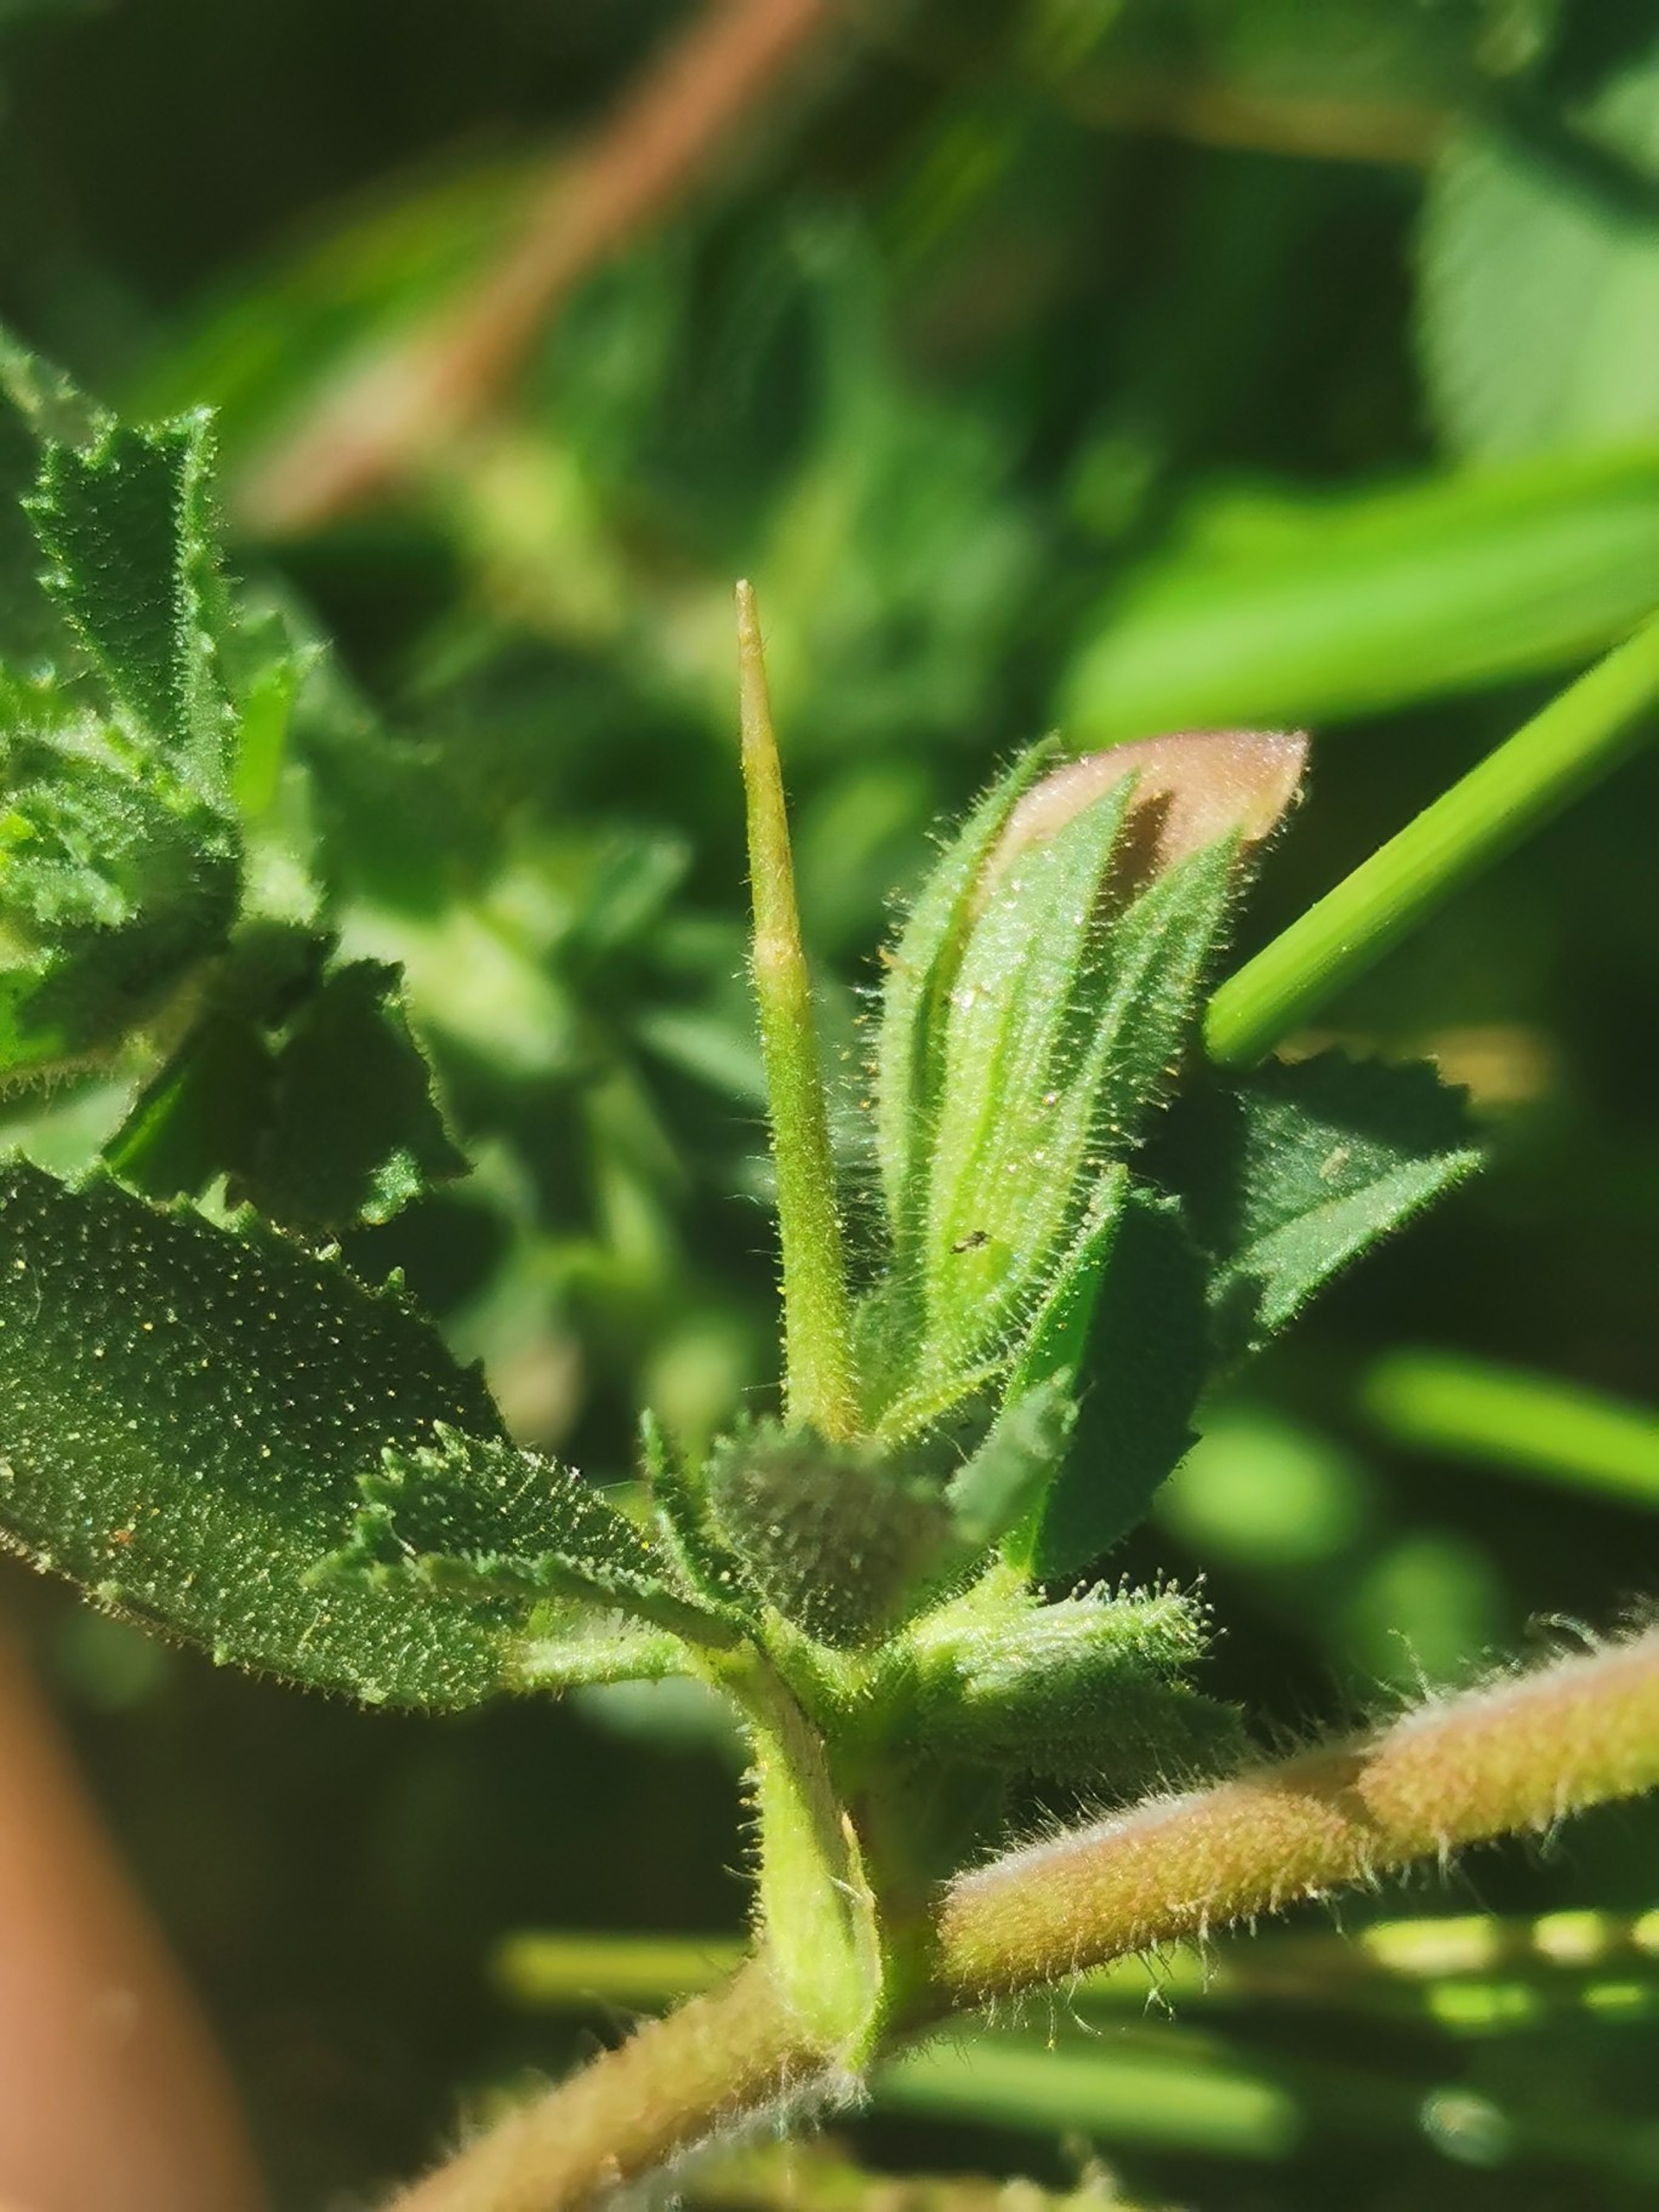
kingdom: Plantae
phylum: Tracheophyta
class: Magnoliopsida
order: Fabales
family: Fabaceae
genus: Ononis
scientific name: Ononis
